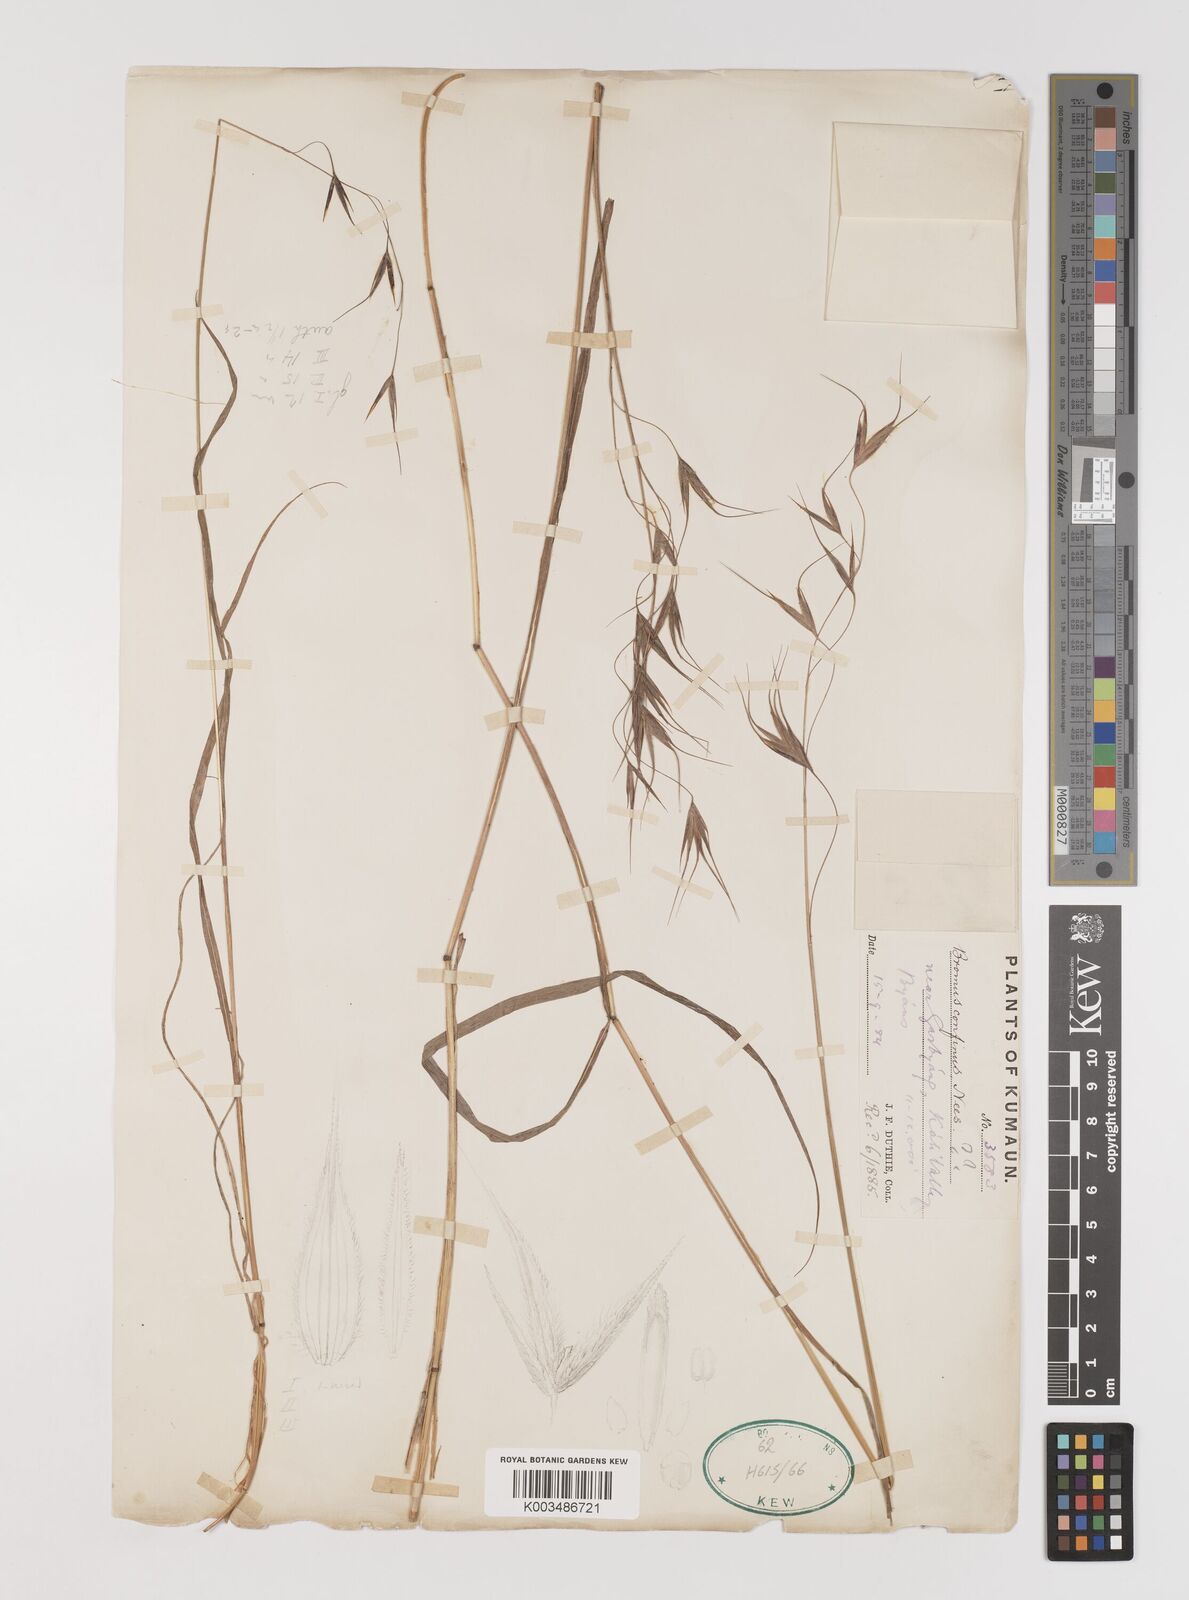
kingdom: Plantae
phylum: Tracheophyta
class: Liliopsida
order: Poales
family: Poaceae
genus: Bromus
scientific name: Bromus porphyranthos
